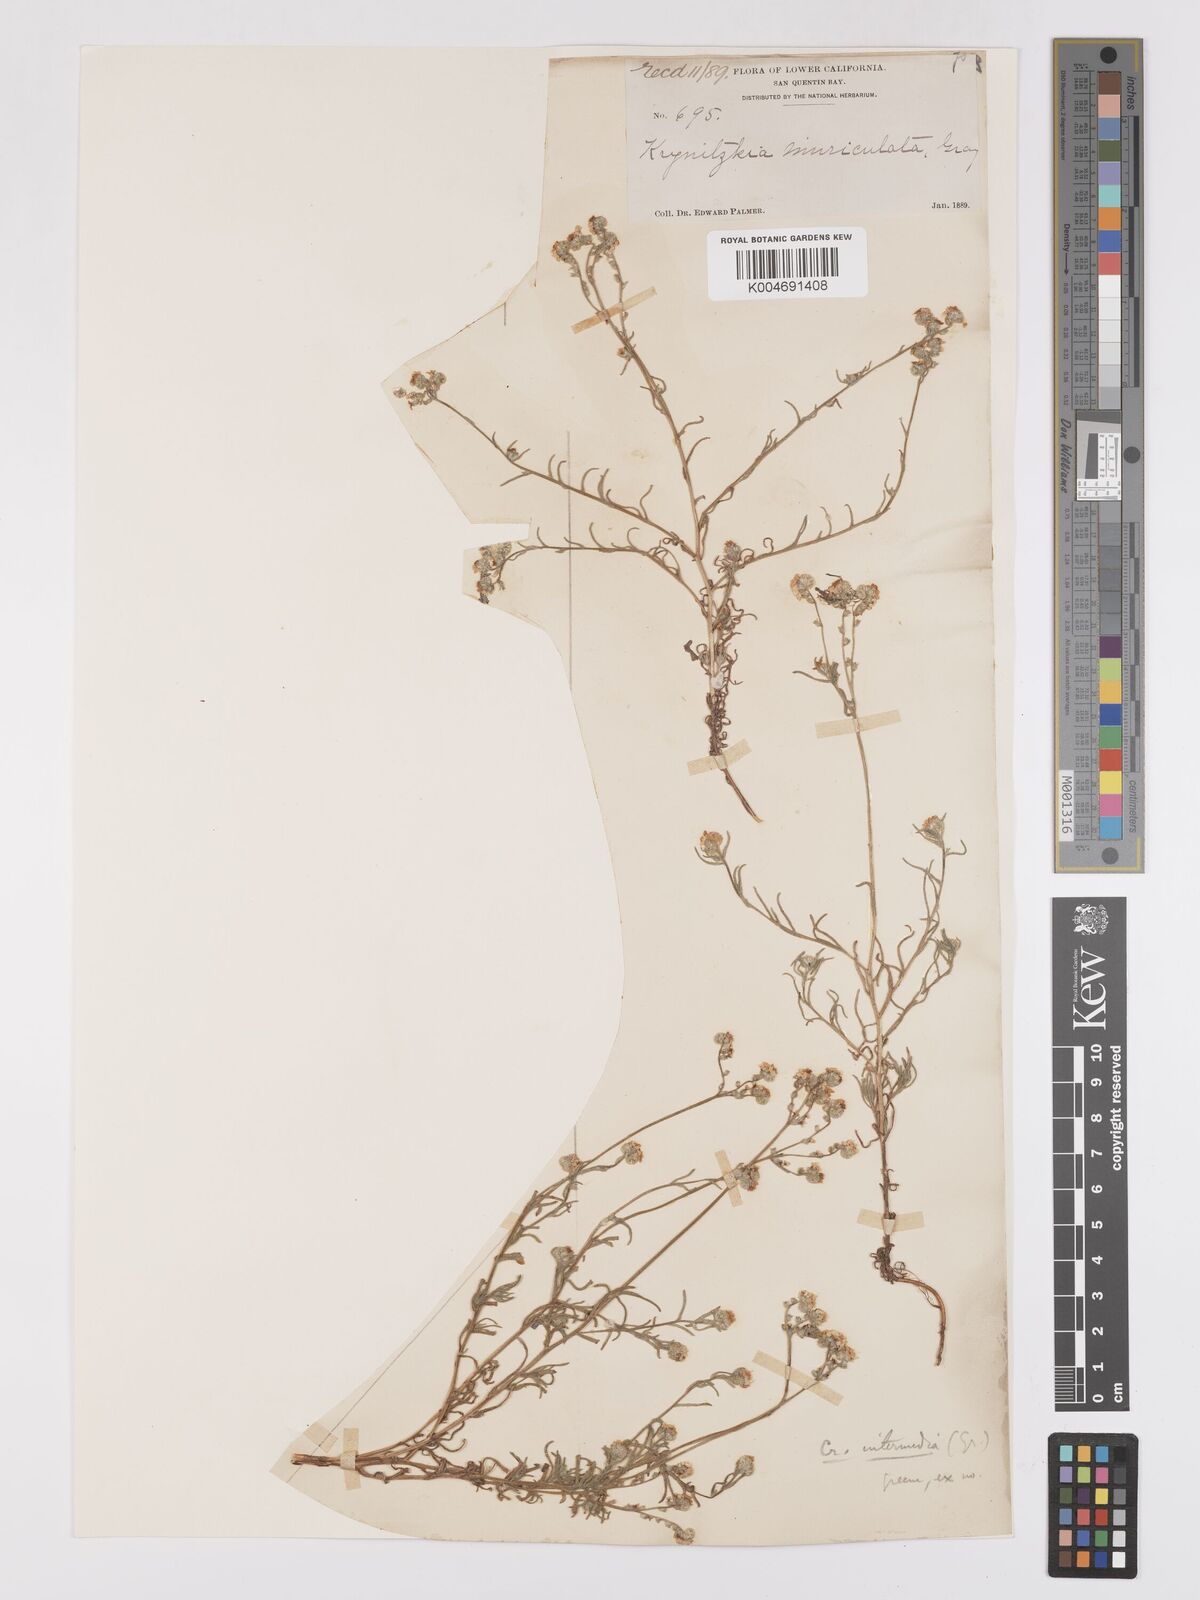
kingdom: Plantae
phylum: Tracheophyta
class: Magnoliopsida
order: Boraginales
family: Boraginaceae
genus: Cryptantha
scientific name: Cryptantha intermedia
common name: Clearwater cryptantha
